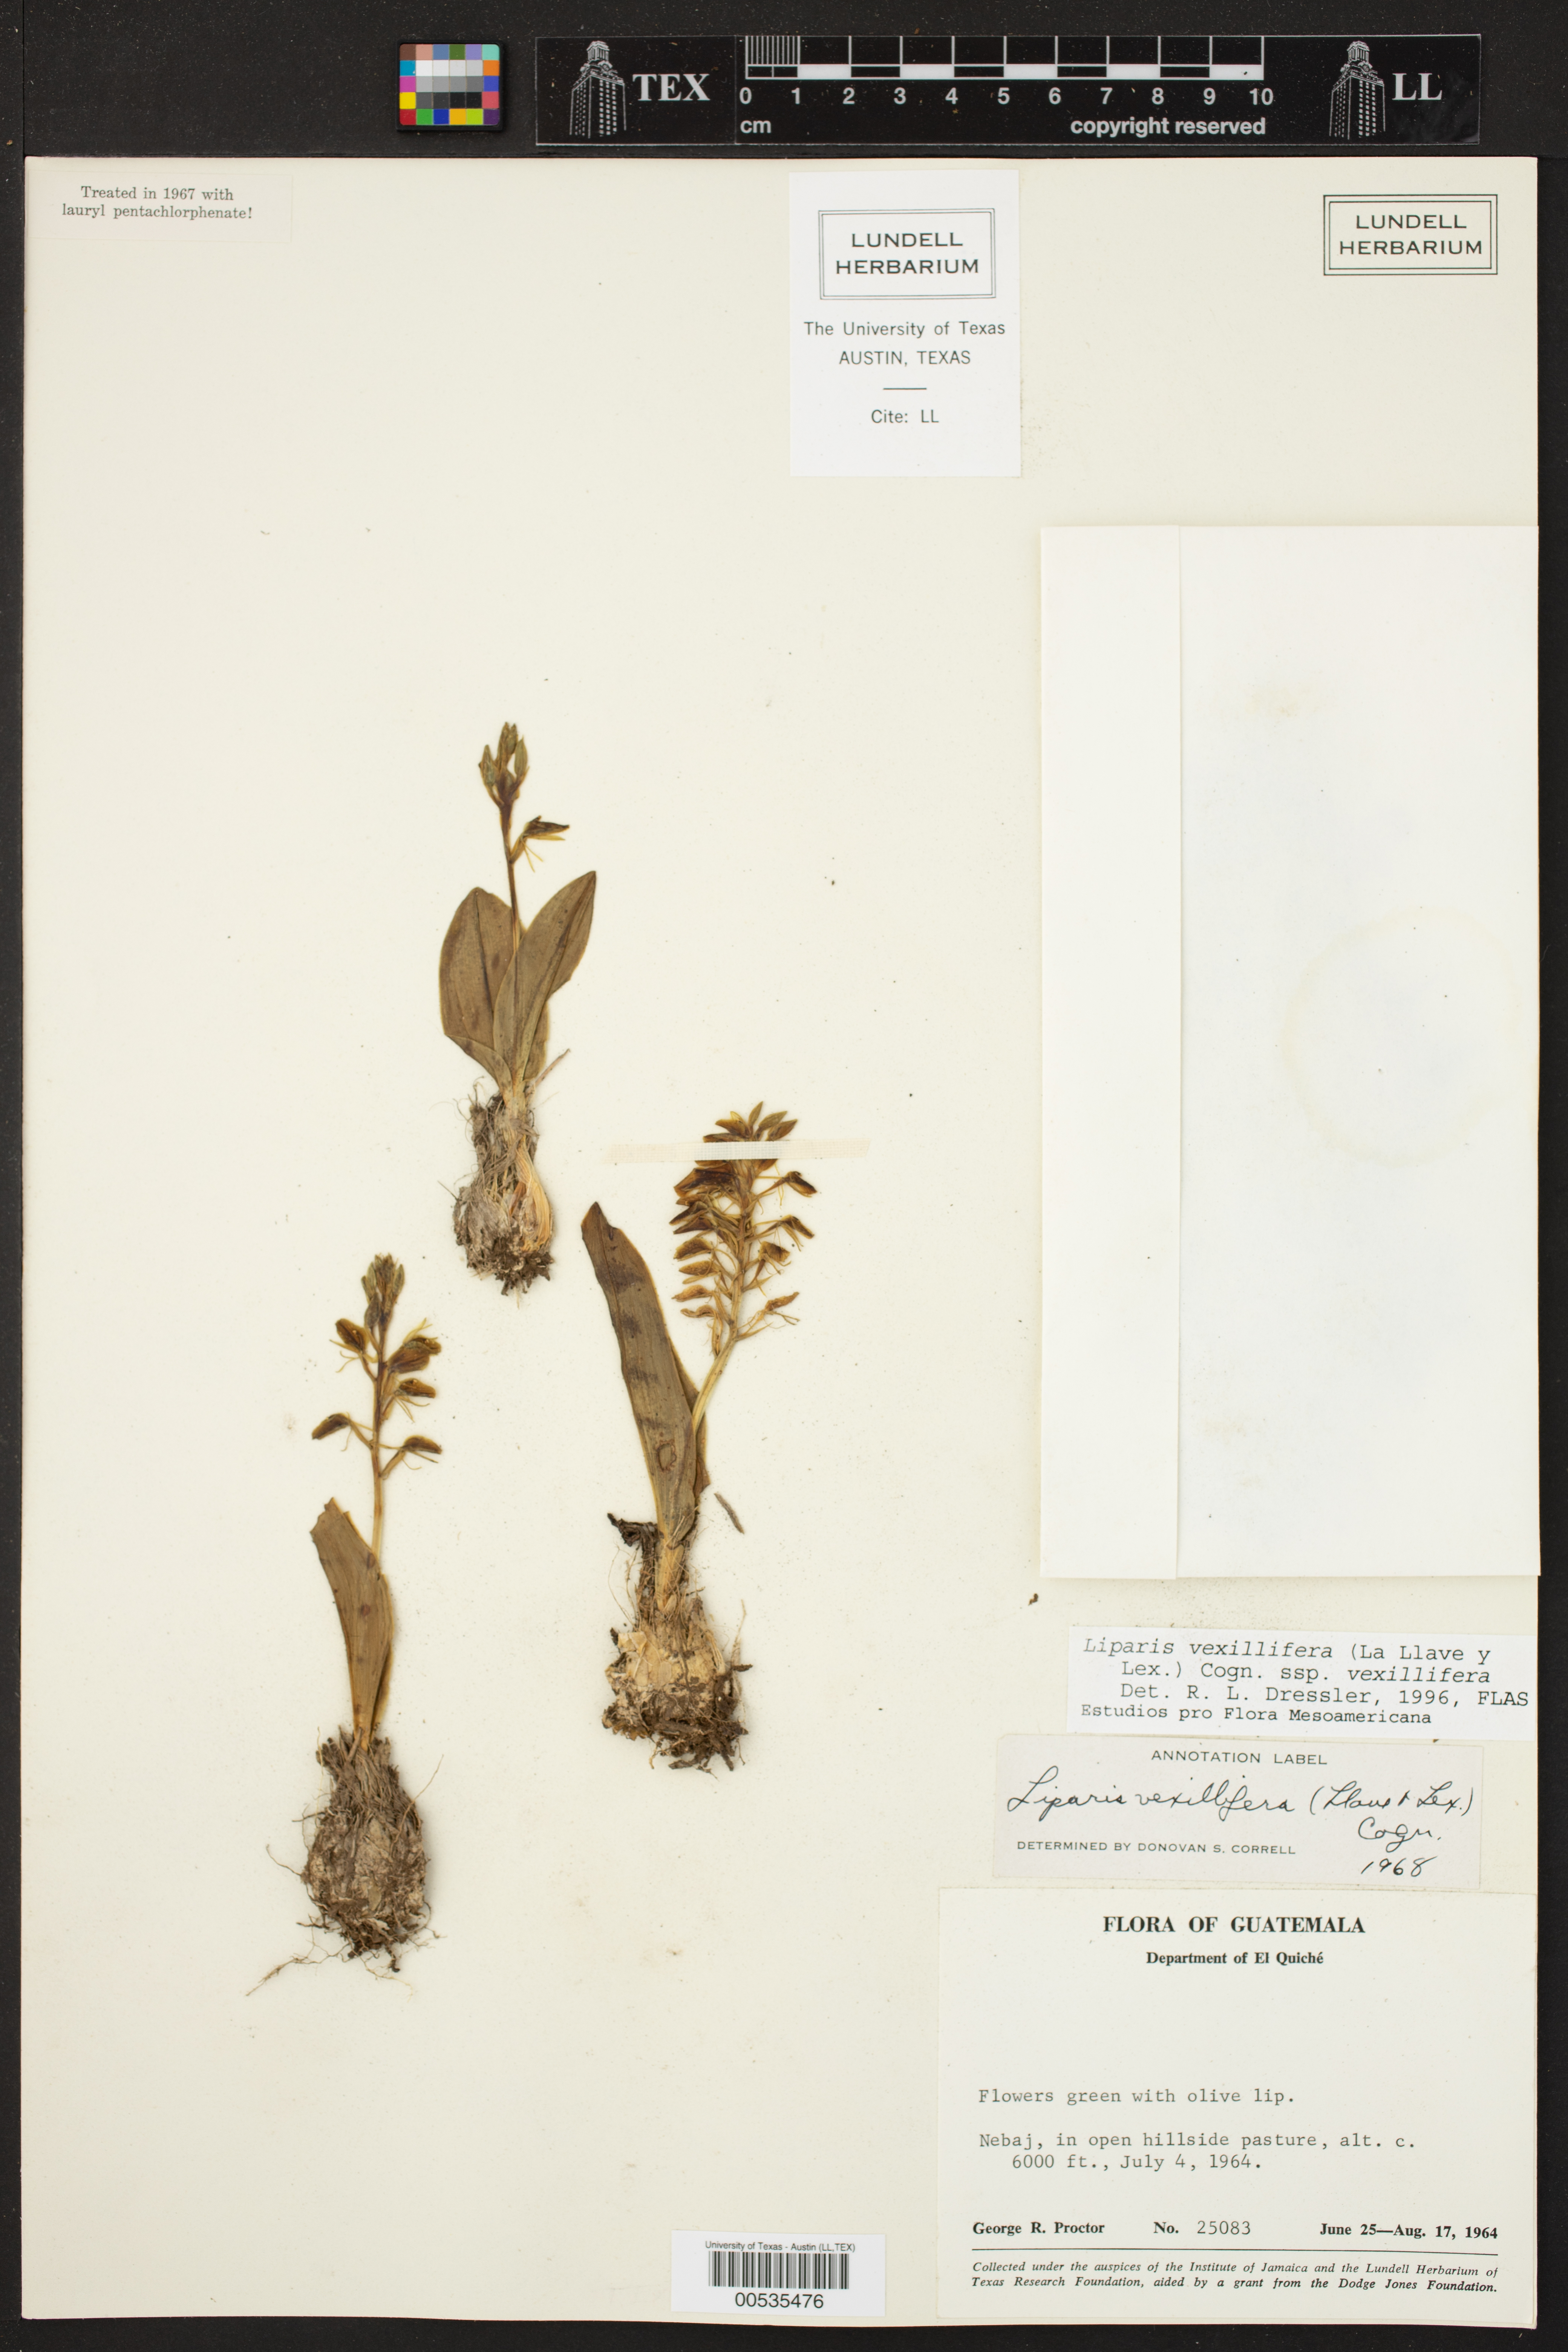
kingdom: Plantae
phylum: Tracheophyta
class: Liliopsida
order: Asparagales
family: Orchidaceae
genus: Liparis
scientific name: Liparis vexillifera
